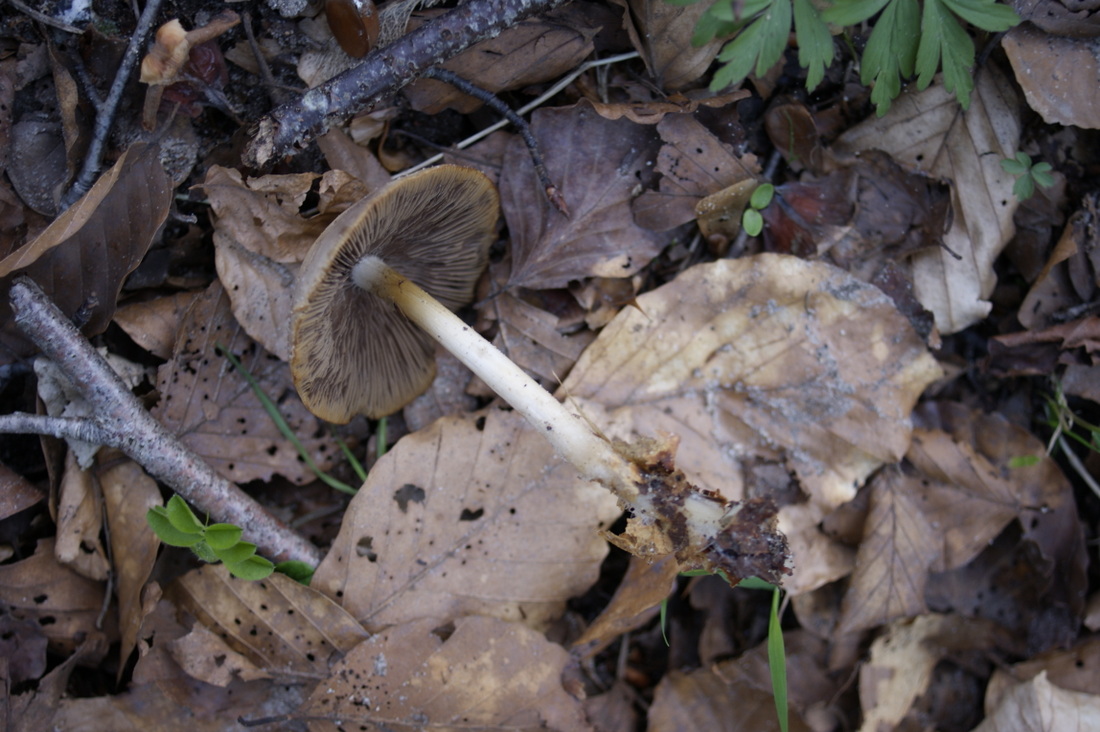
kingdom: Fungi
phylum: Basidiomycota
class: Agaricomycetes
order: Agaricales
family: Psathyrellaceae
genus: Psathyrella
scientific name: Psathyrella spadiceogrisea
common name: gråbrun mørkhat
